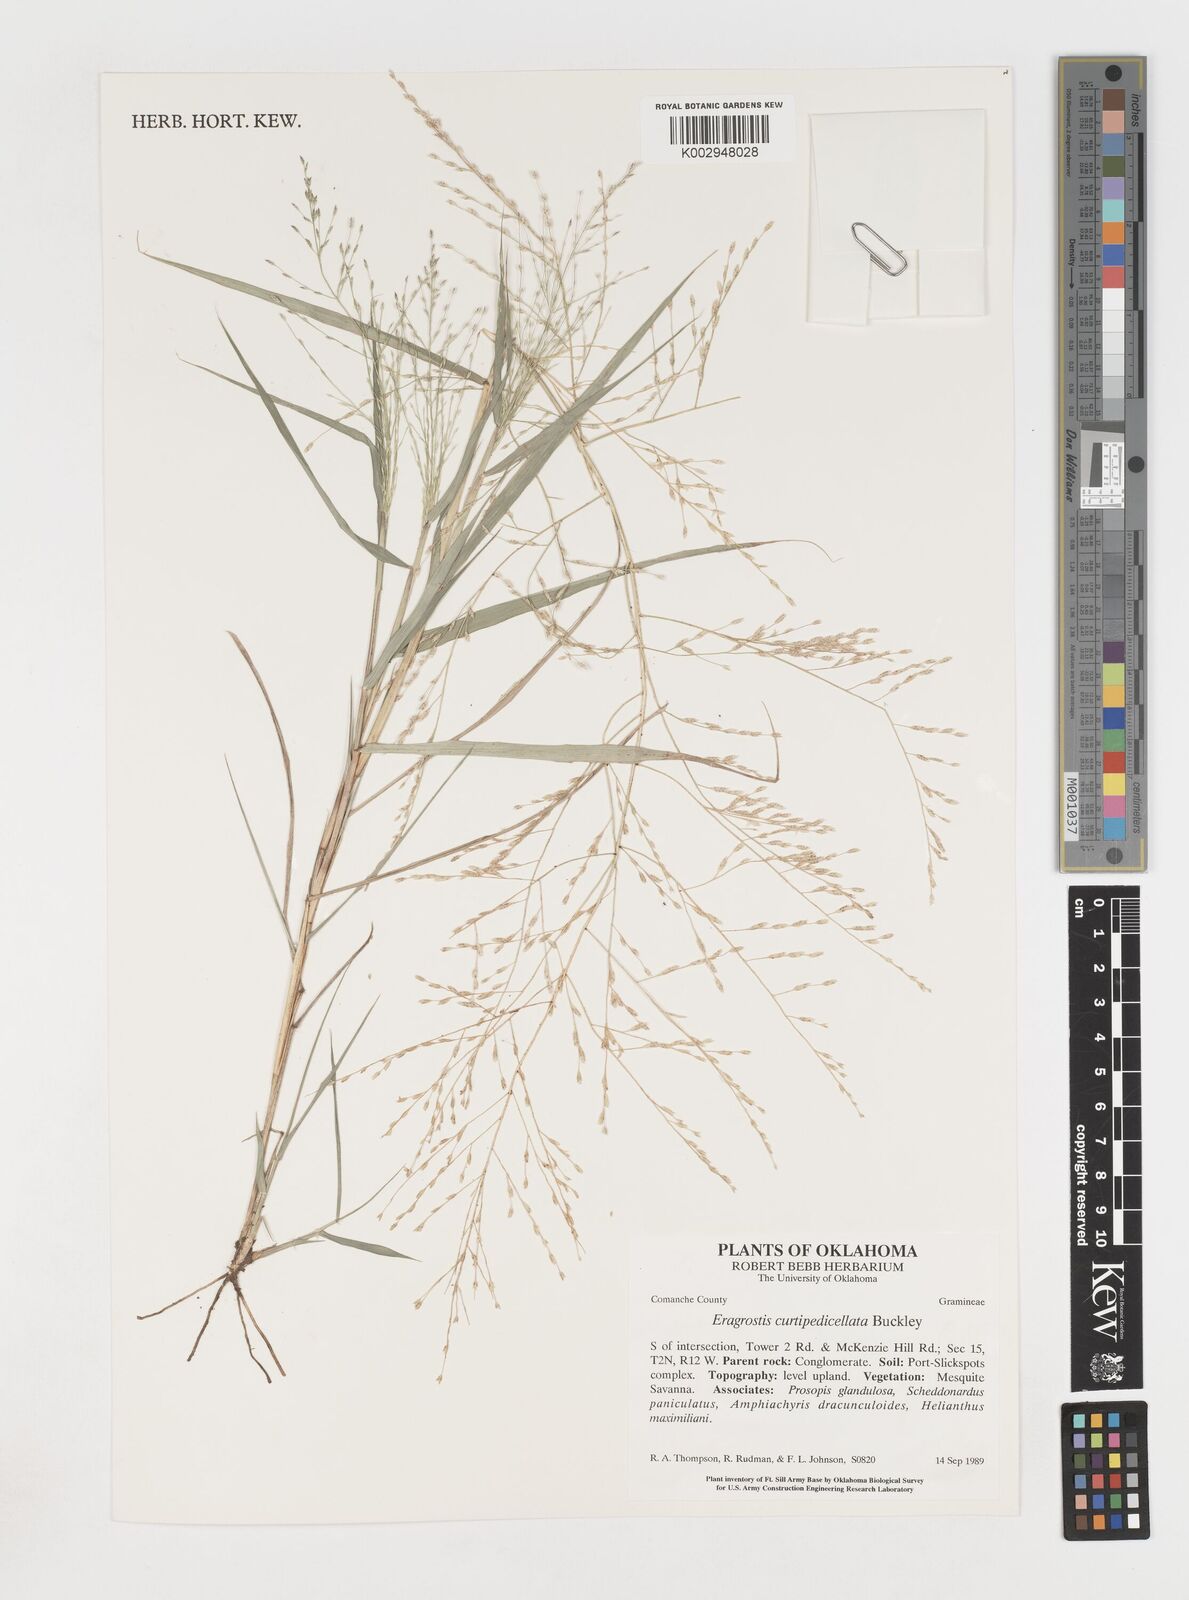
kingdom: Plantae
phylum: Tracheophyta
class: Liliopsida
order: Poales
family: Poaceae
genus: Eragrostis
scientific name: Eragrostis curtipedicellata
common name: Gummy love grass
